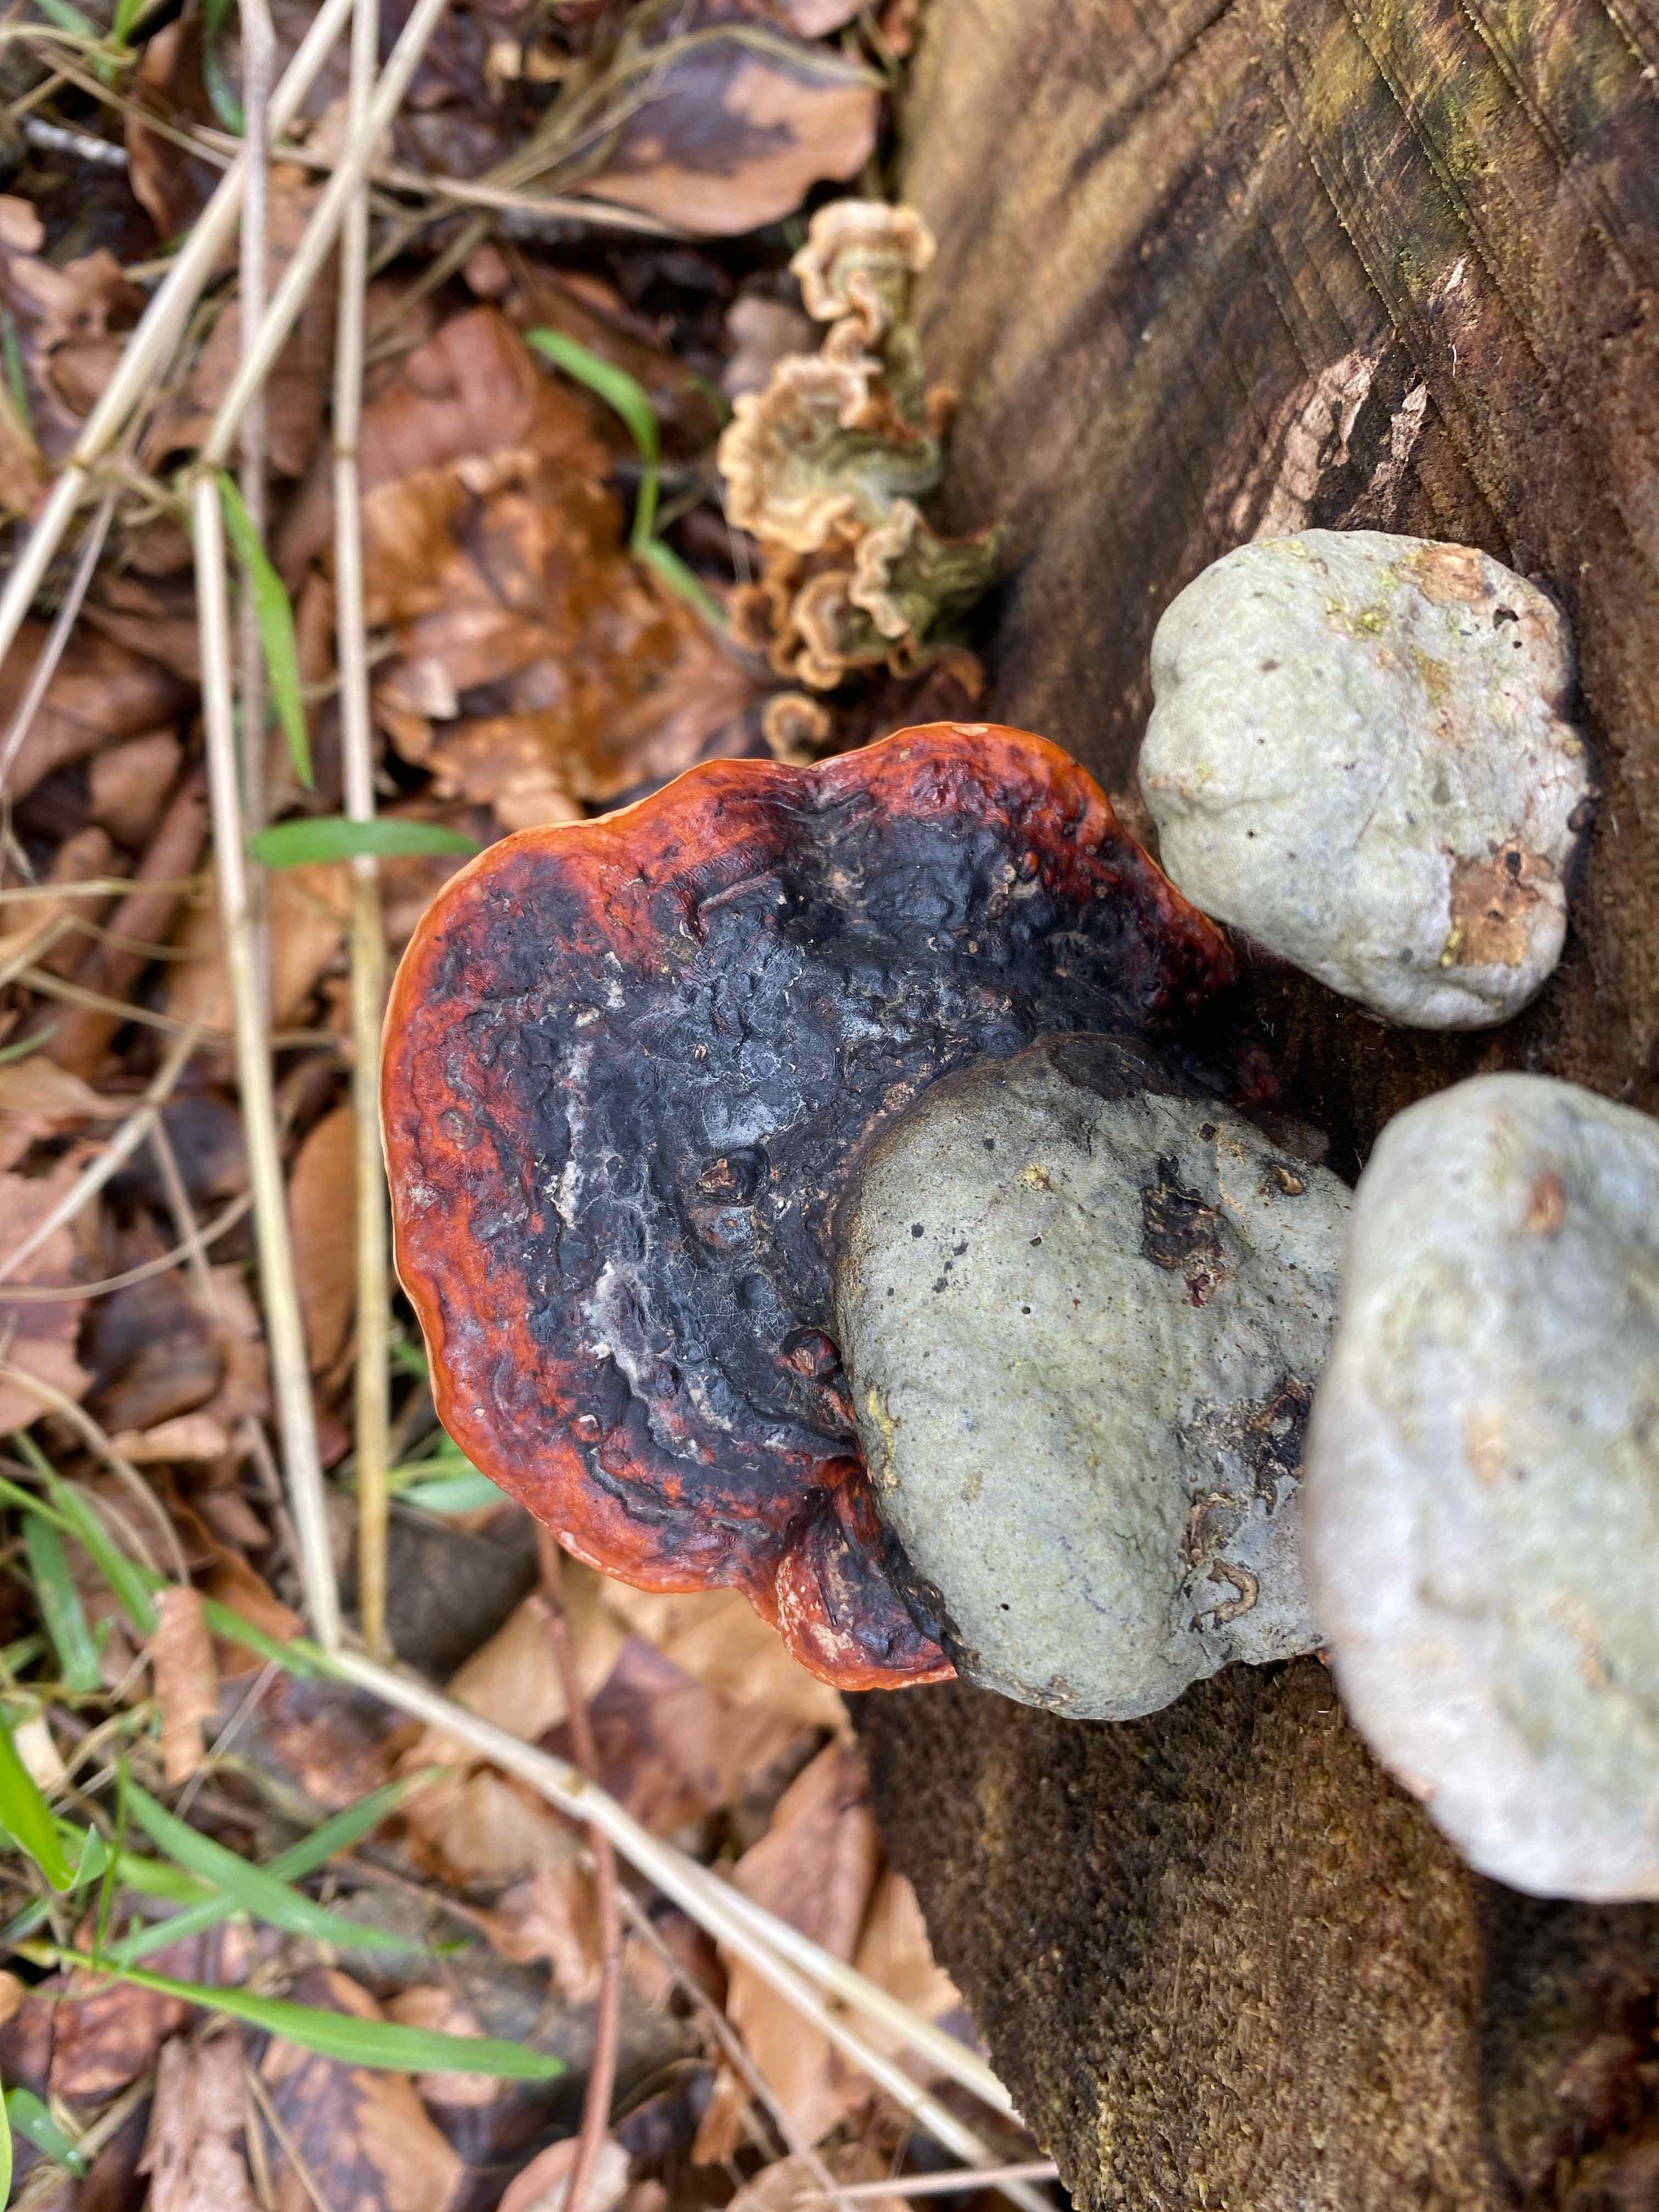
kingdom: Fungi
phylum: Basidiomycota
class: Agaricomycetes
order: Polyporales
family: Fomitopsidaceae
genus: Fomitopsis
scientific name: Fomitopsis pinicola
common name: randbæltet hovporesvamp
